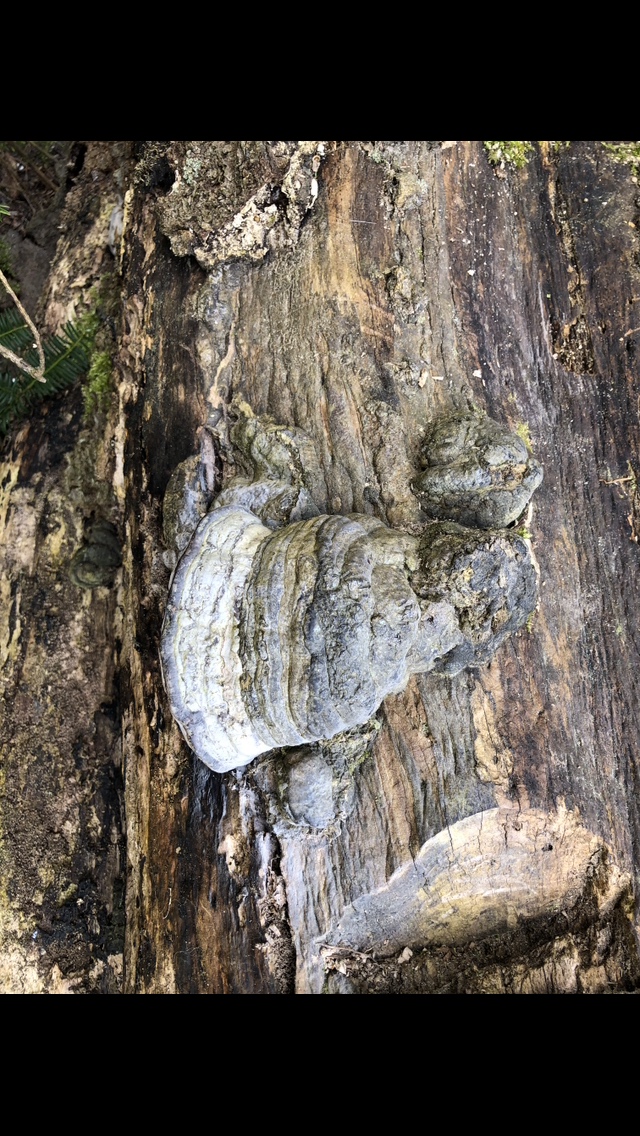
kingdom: Fungi
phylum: Basidiomycota
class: Agaricomycetes
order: Polyporales
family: Polyporaceae
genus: Fomes
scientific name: Fomes fomentarius
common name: tøndersvamp
